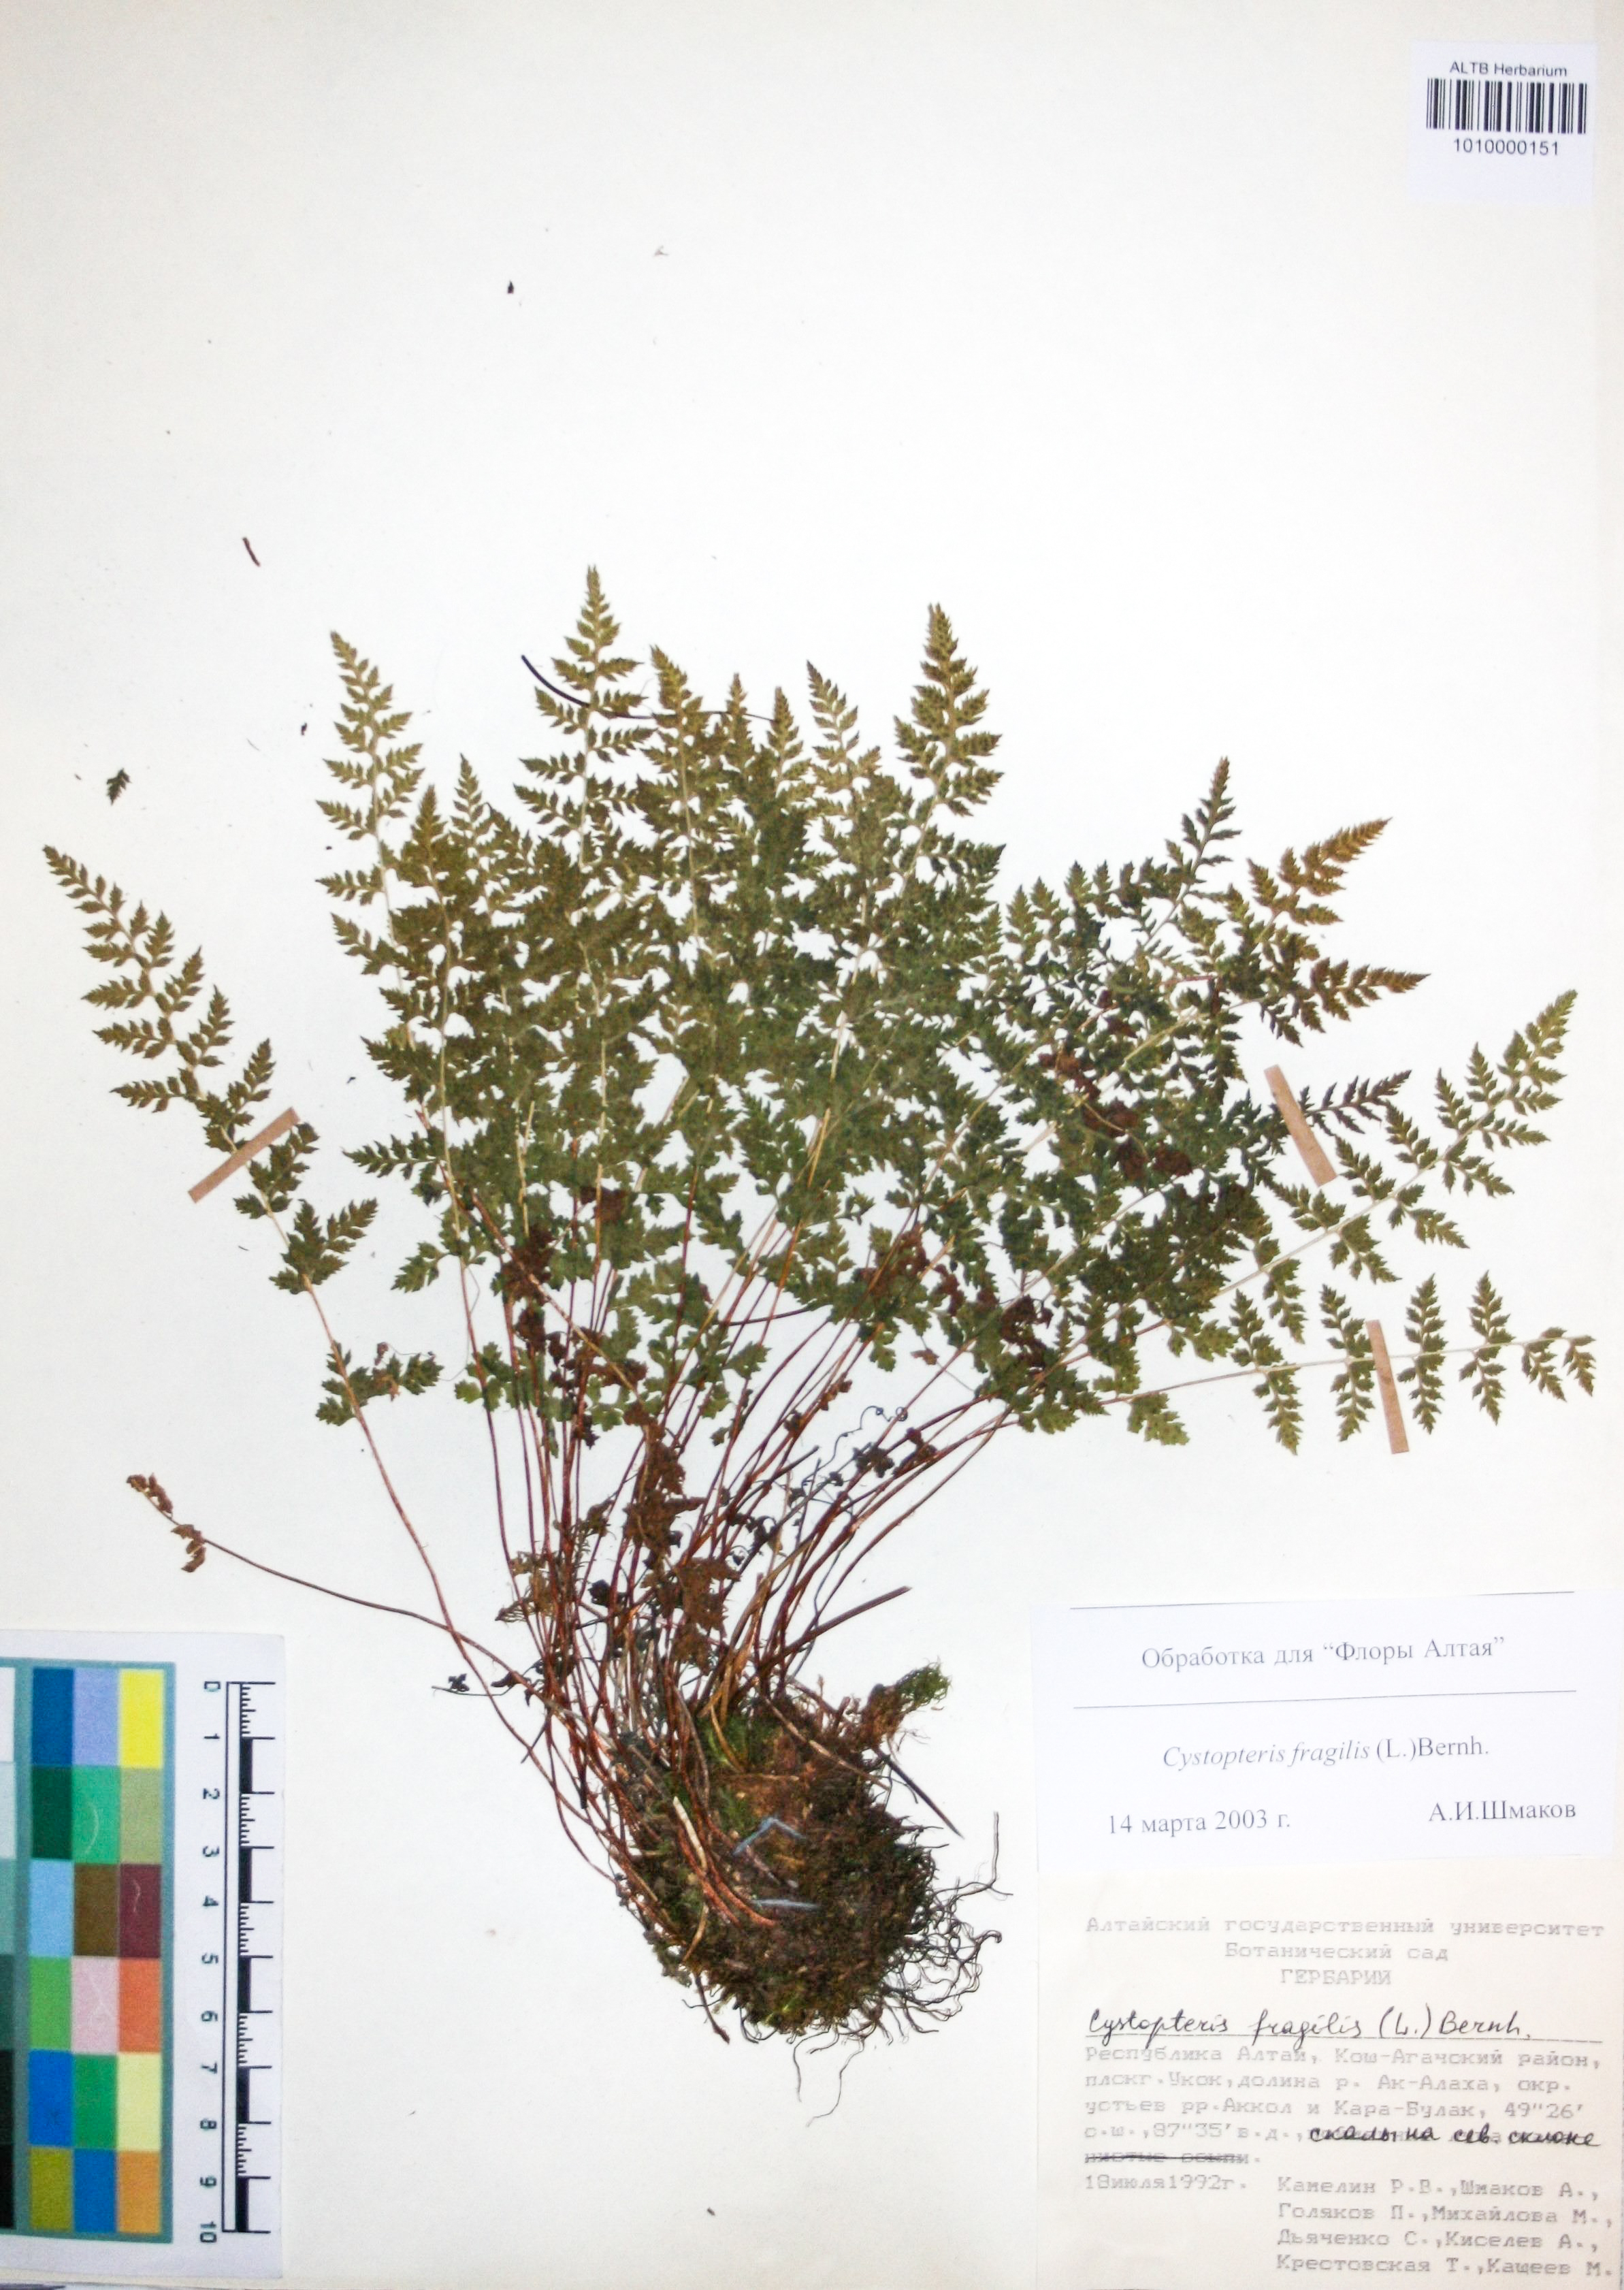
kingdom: Plantae
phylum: Tracheophyta
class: Polypodiopsida
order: Polypodiales
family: Cystopteridaceae
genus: Cystopteris
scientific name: Cystopteris fragilis
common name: Brittle bladder fern
